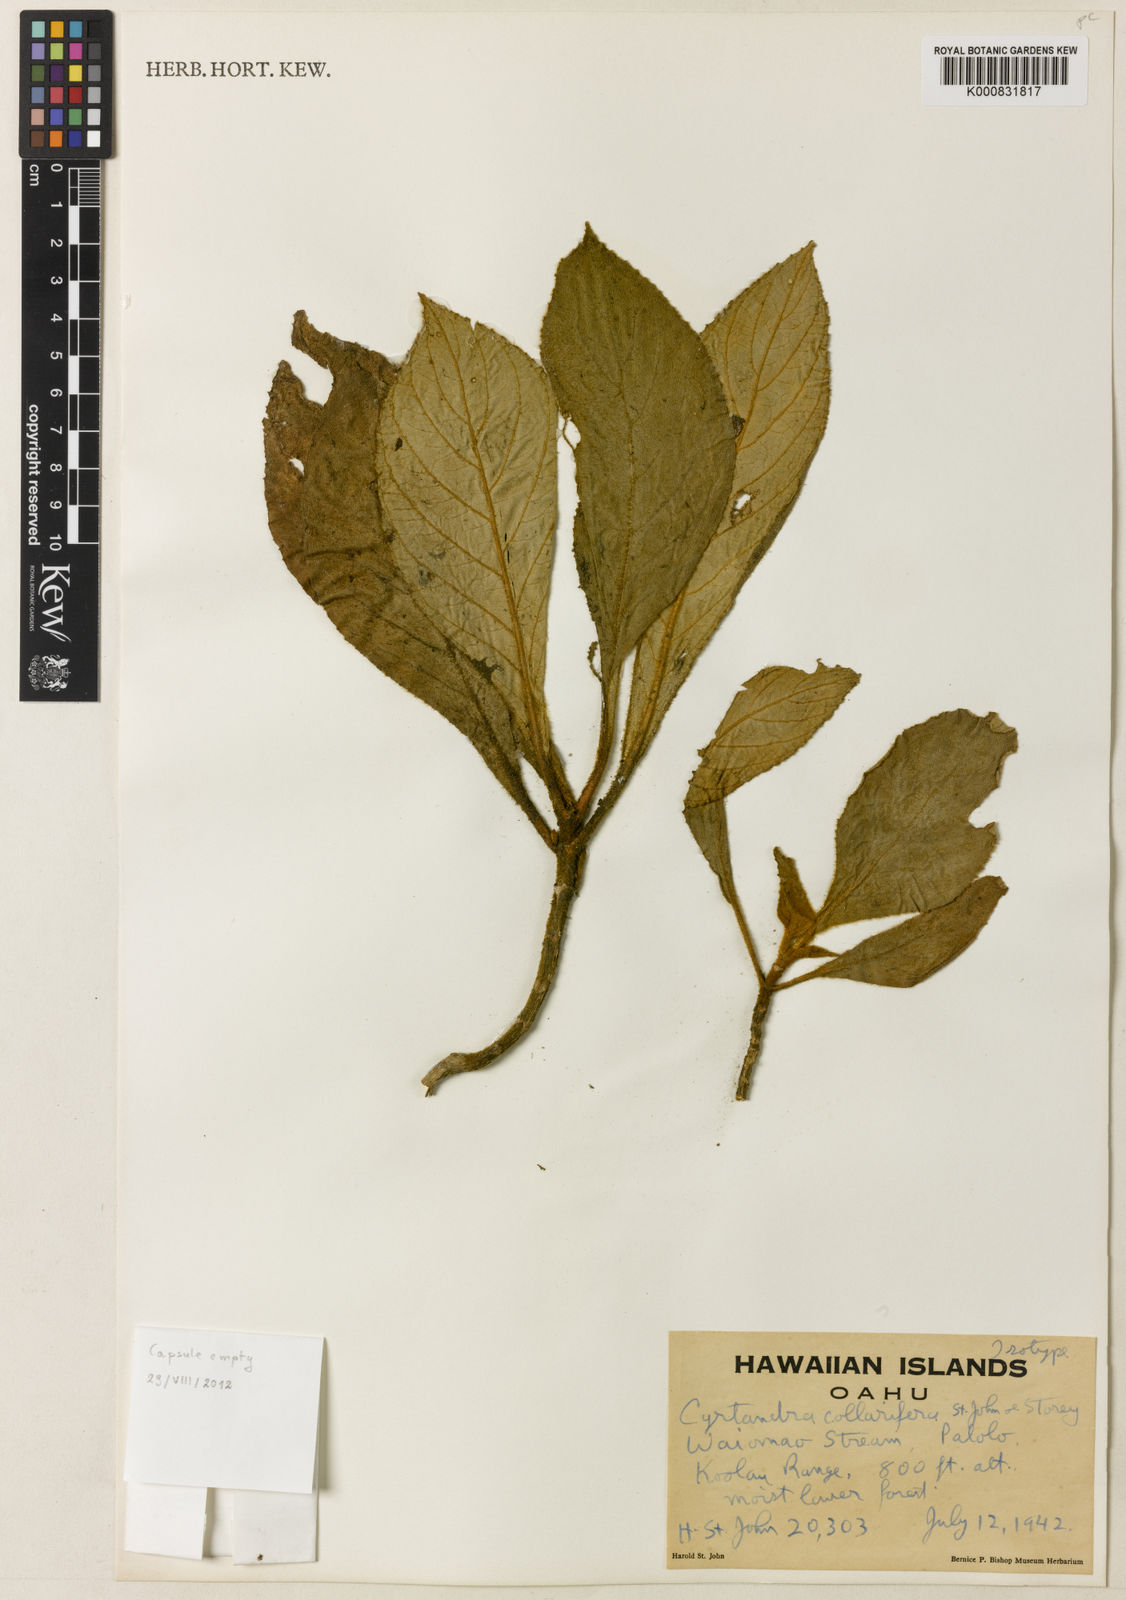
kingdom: Plantae
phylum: Tracheophyta
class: Magnoliopsida
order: Lamiales
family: Gesneriaceae
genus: Cyrtandra
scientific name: Cyrtandra kalichii
